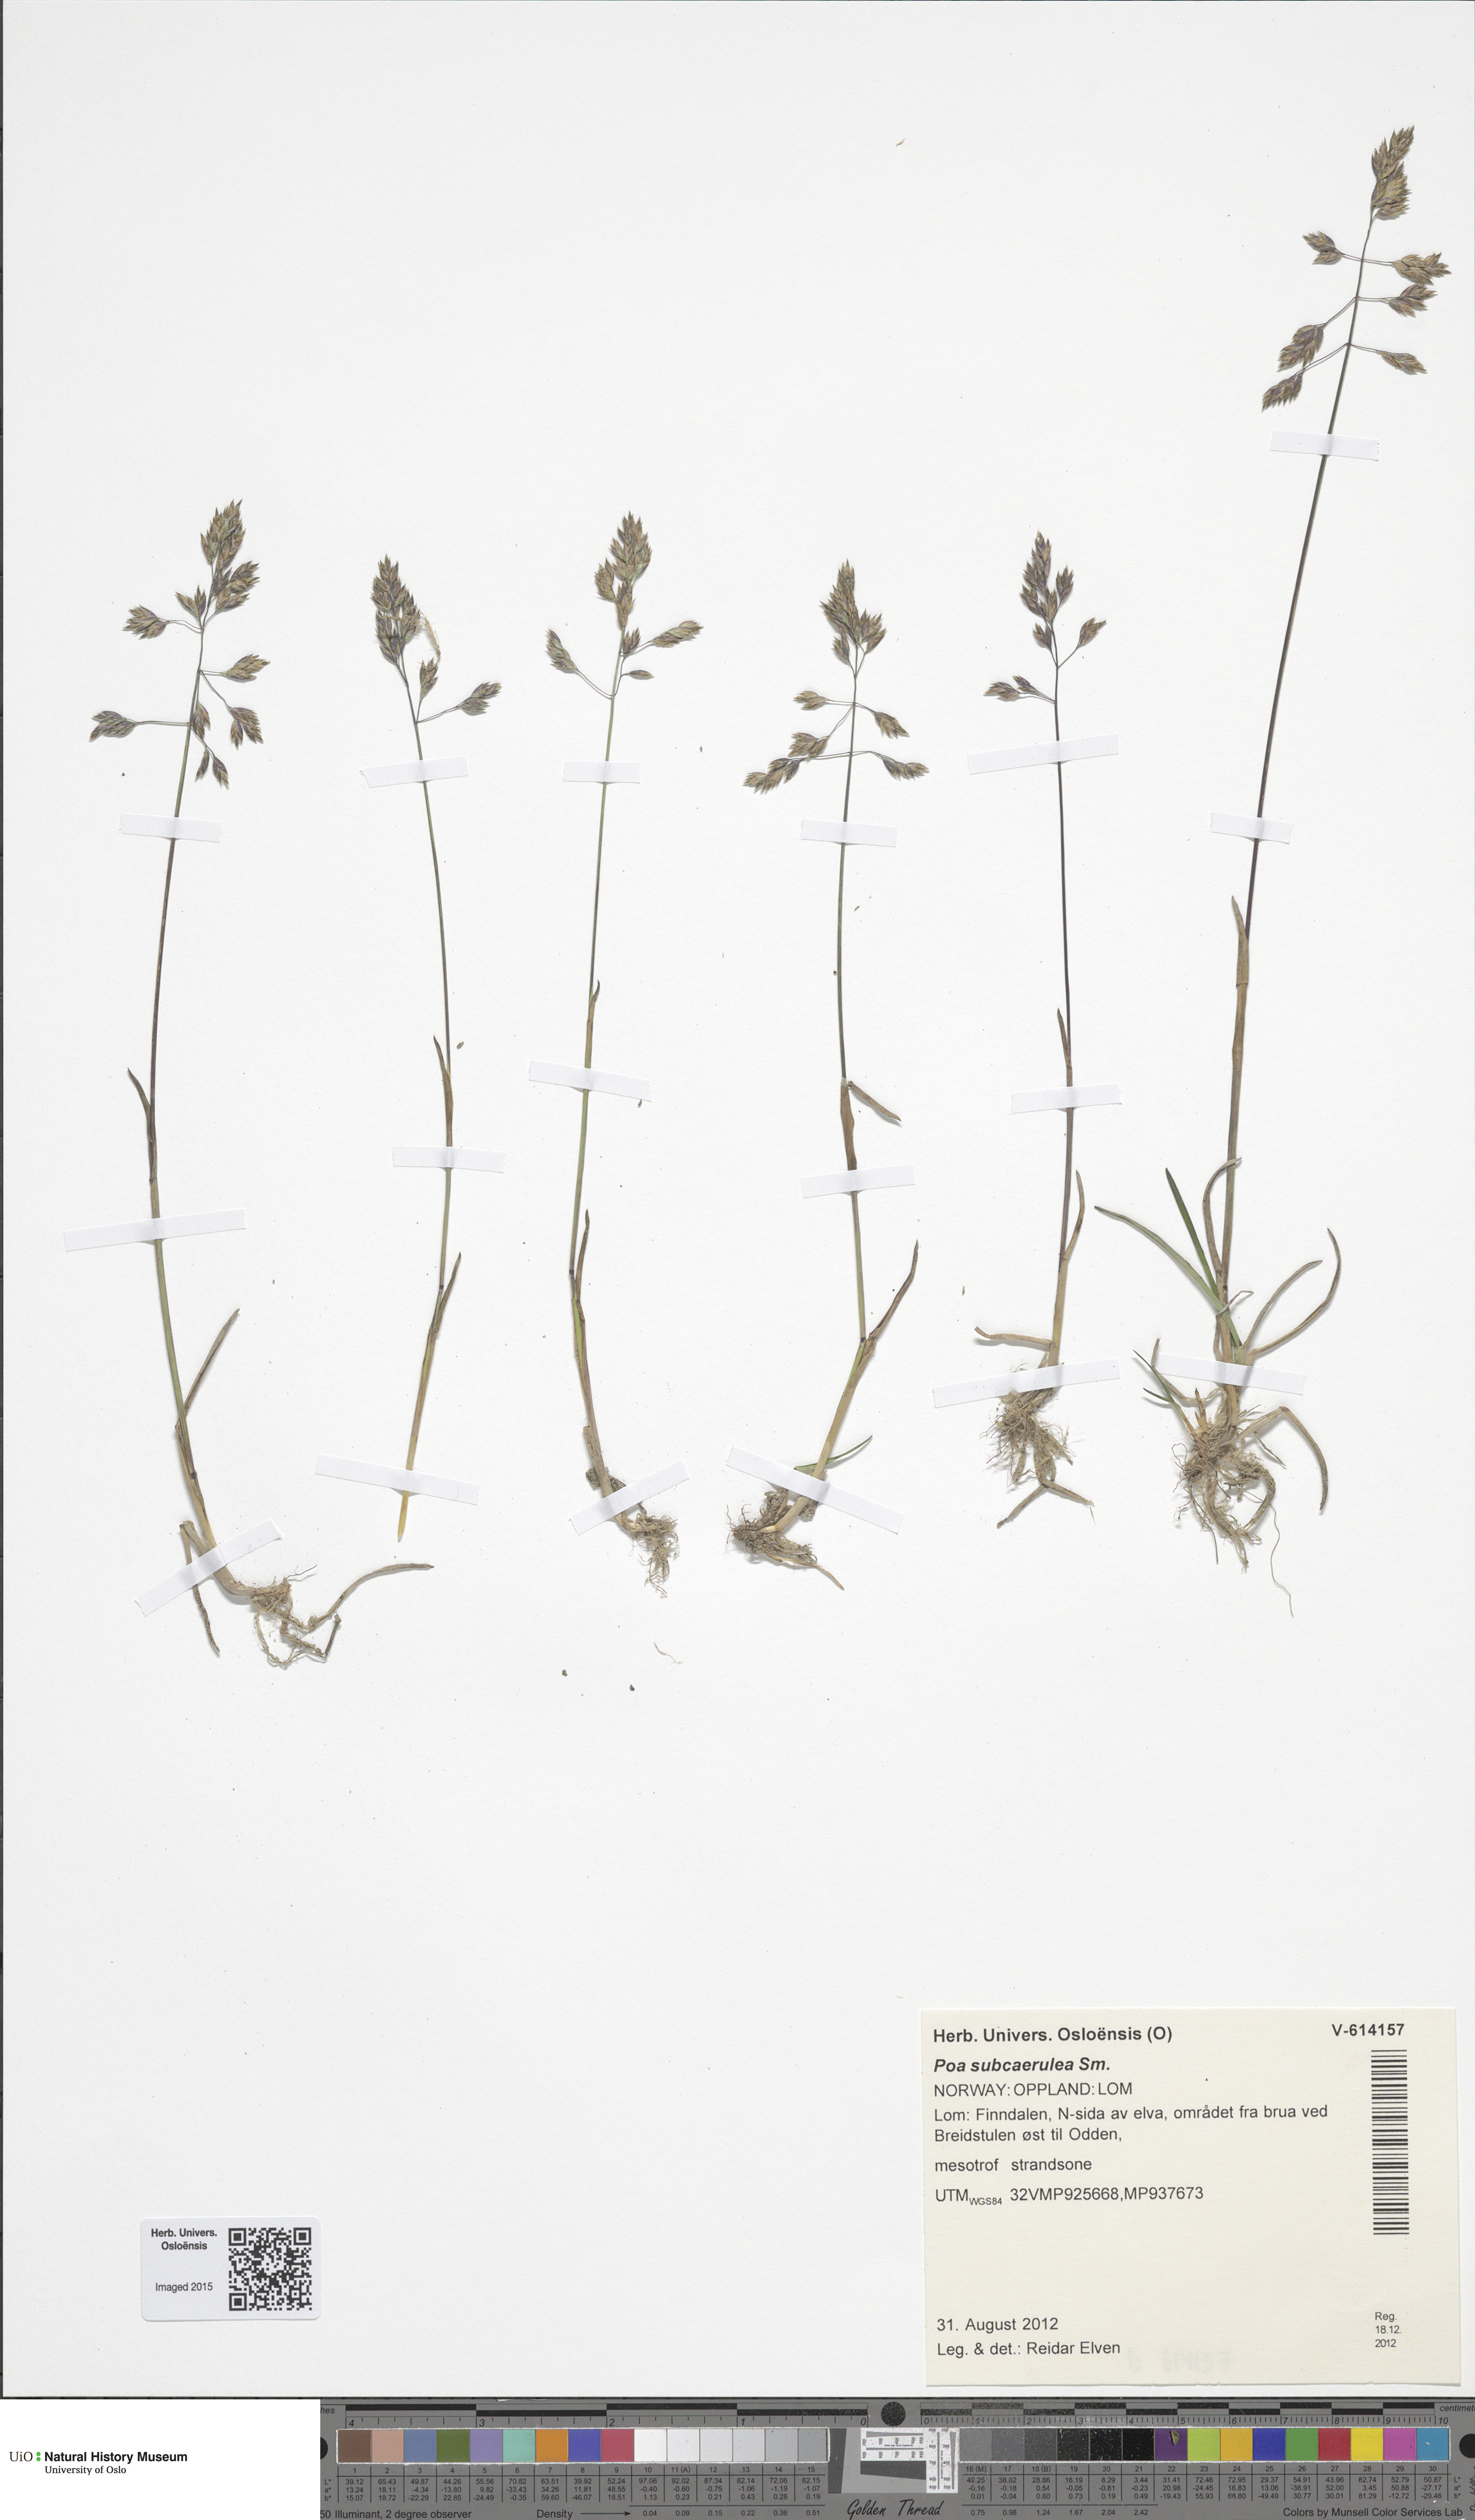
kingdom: Plantae
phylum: Tracheophyta
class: Liliopsida
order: Poales
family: Poaceae
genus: Poa
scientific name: Poa humilis
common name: Spreading meadow-grass
